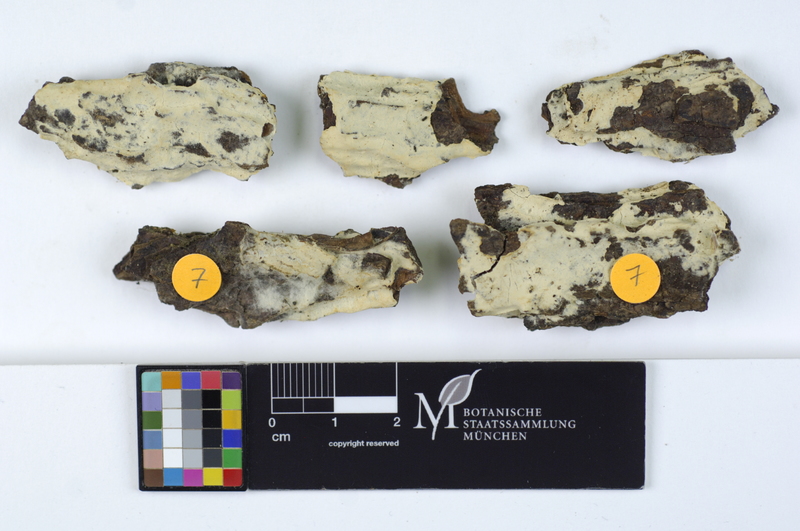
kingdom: Fungi
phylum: Basidiomycota
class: Agaricomycetes
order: Corticiales
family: Corticiaceae
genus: Erythricium
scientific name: Erythricium laetum
